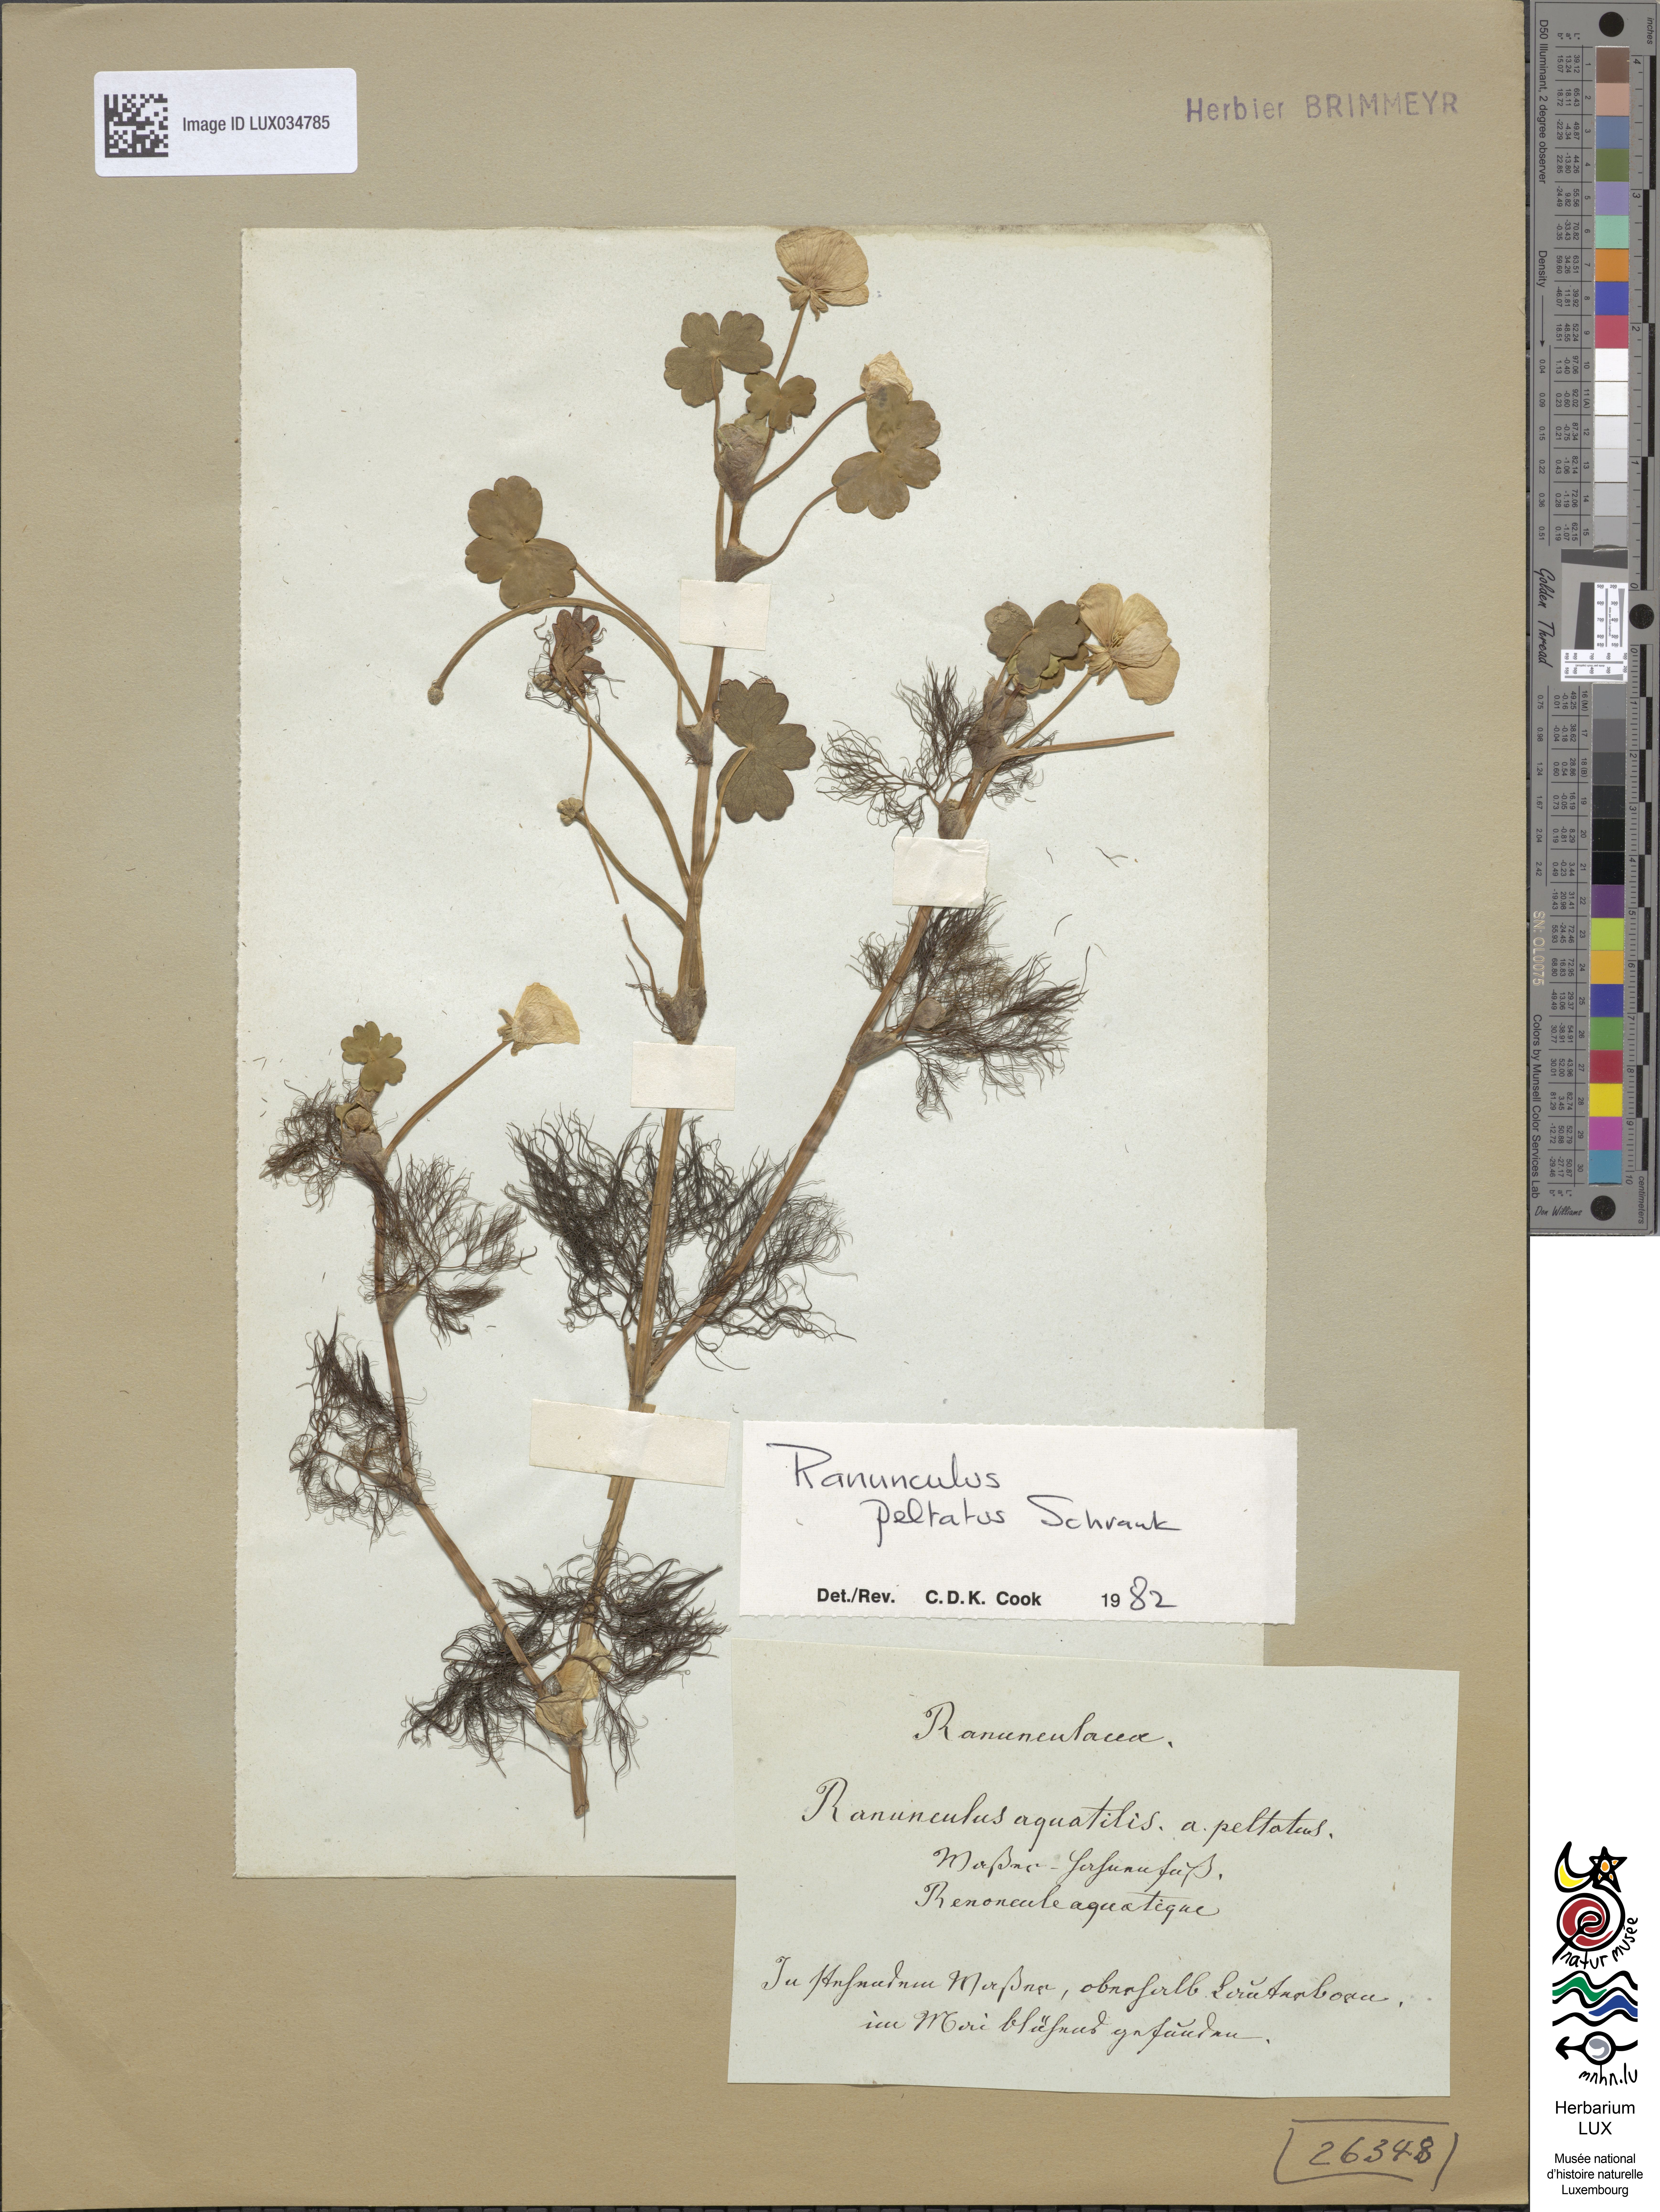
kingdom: Plantae
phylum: Tracheophyta
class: Magnoliopsida
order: Ranunculales
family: Ranunculaceae
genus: Ranunculus
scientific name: Ranunculus aquatilis
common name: Common water-crowfoot
